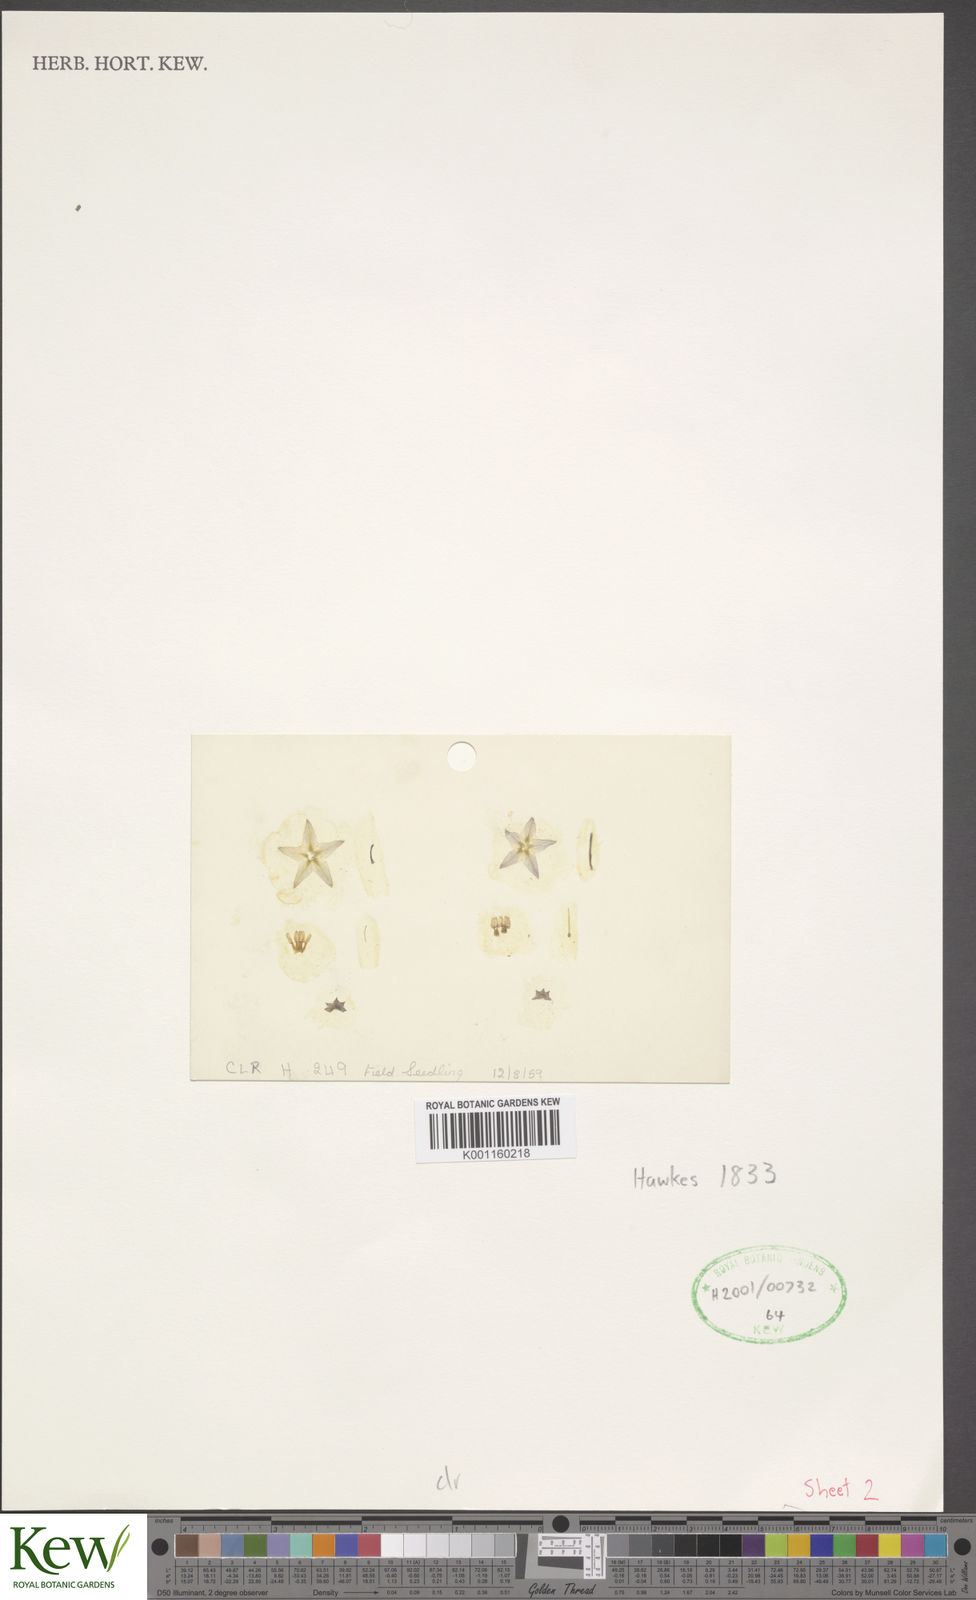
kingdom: Plantae
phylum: Tracheophyta
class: Magnoliopsida
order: Solanales
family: Solanaceae
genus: Solanum
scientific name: Solanum clarum
